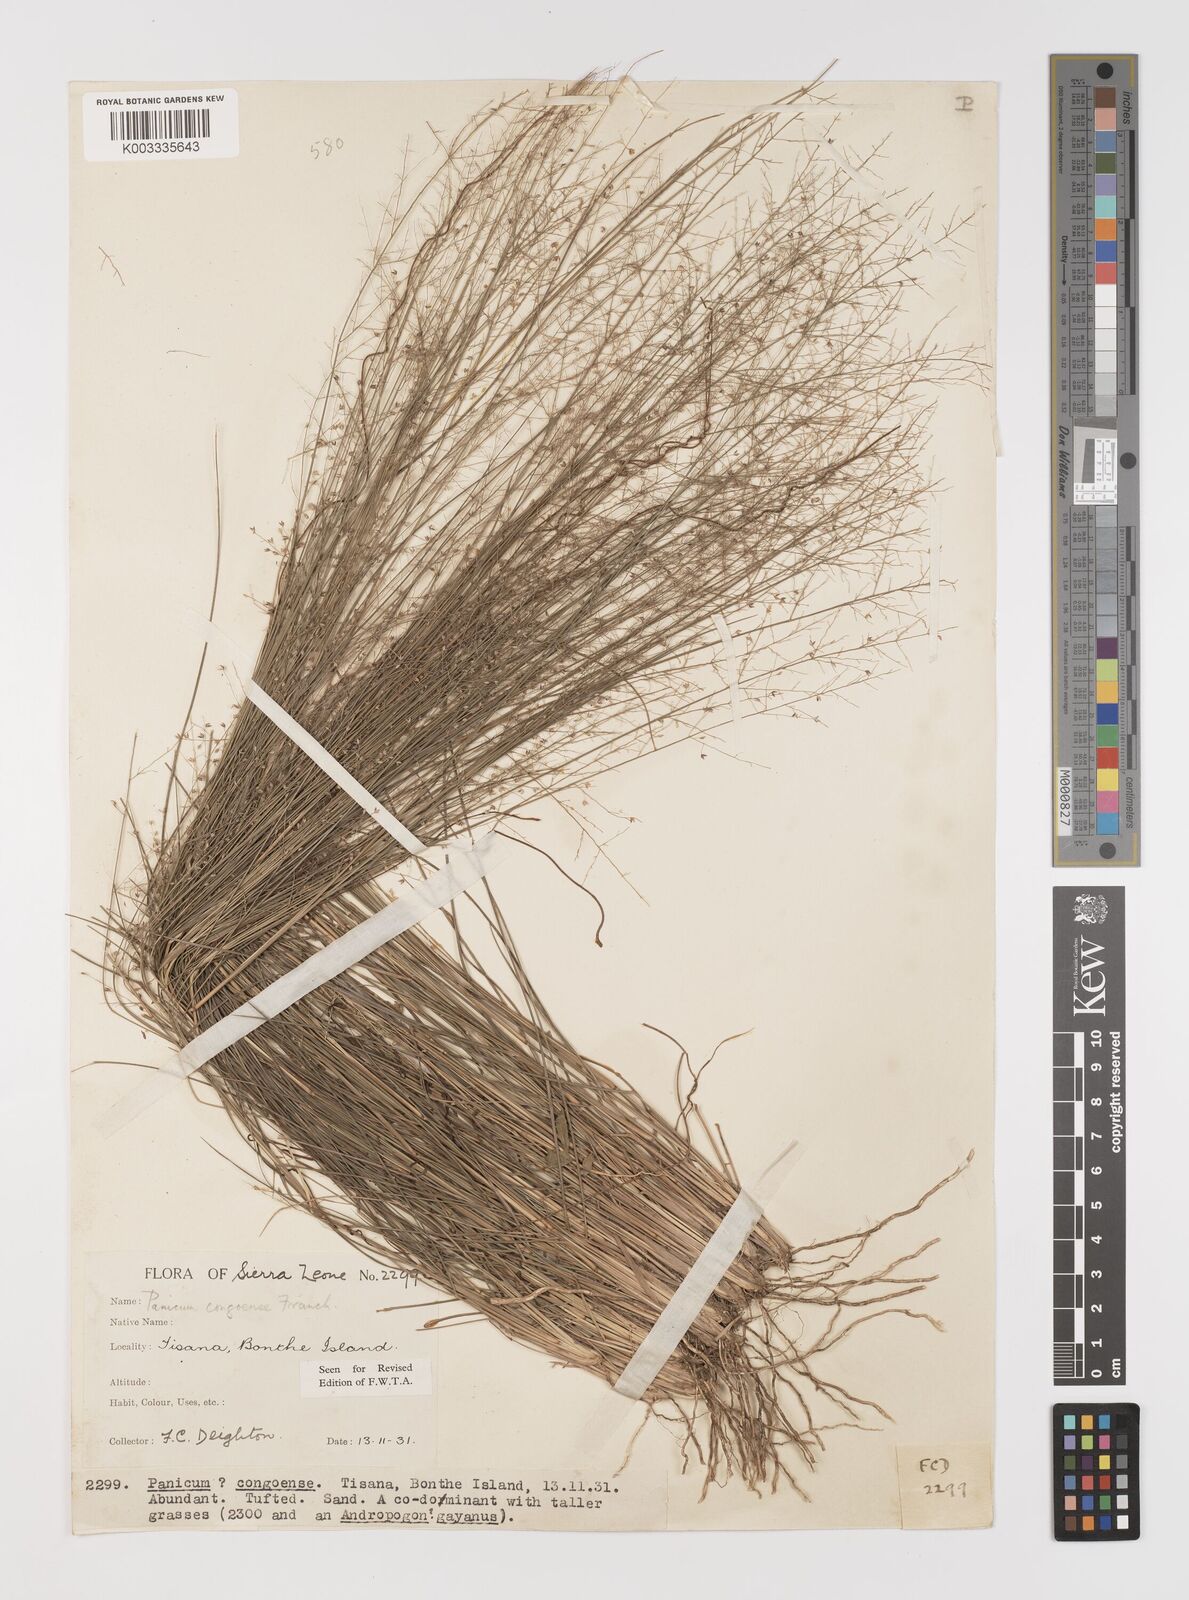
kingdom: Plantae
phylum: Tracheophyta
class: Liliopsida
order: Poales
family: Poaceae
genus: Panicum
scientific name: Panicum congoense
